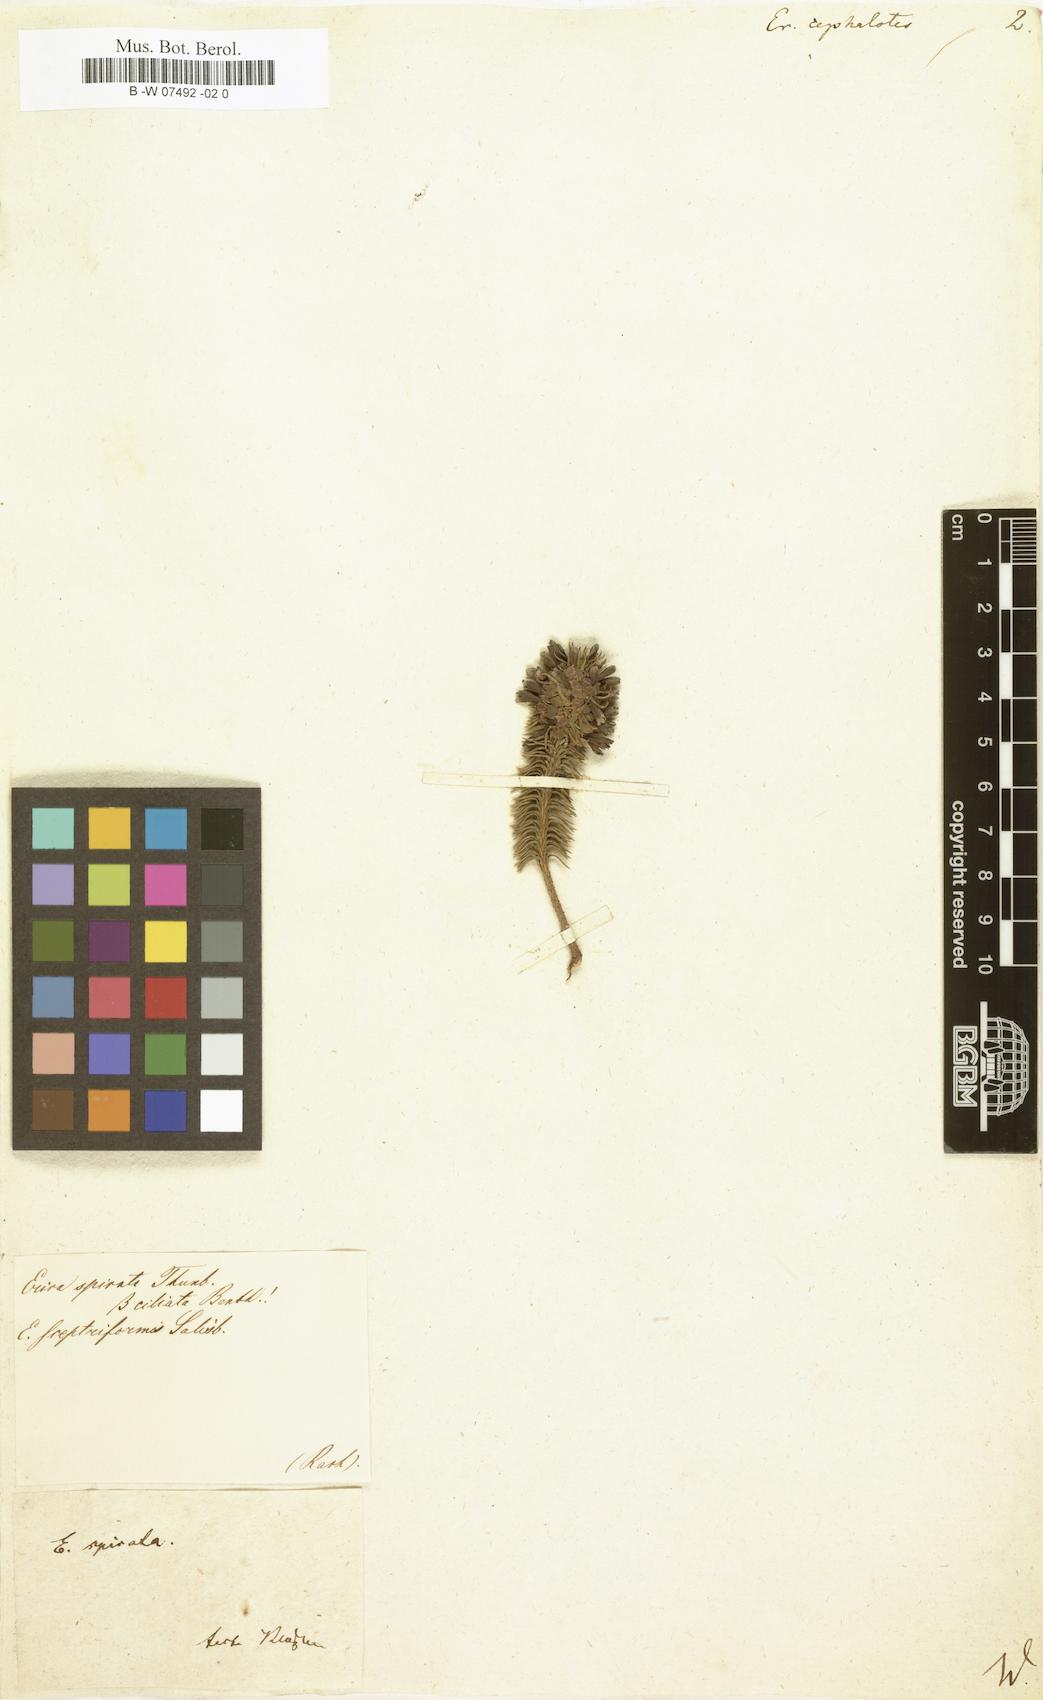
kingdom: Plantae
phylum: Tracheophyta
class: Magnoliopsida
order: Ericales
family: Ericaceae
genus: Erica
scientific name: Erica viscaria
